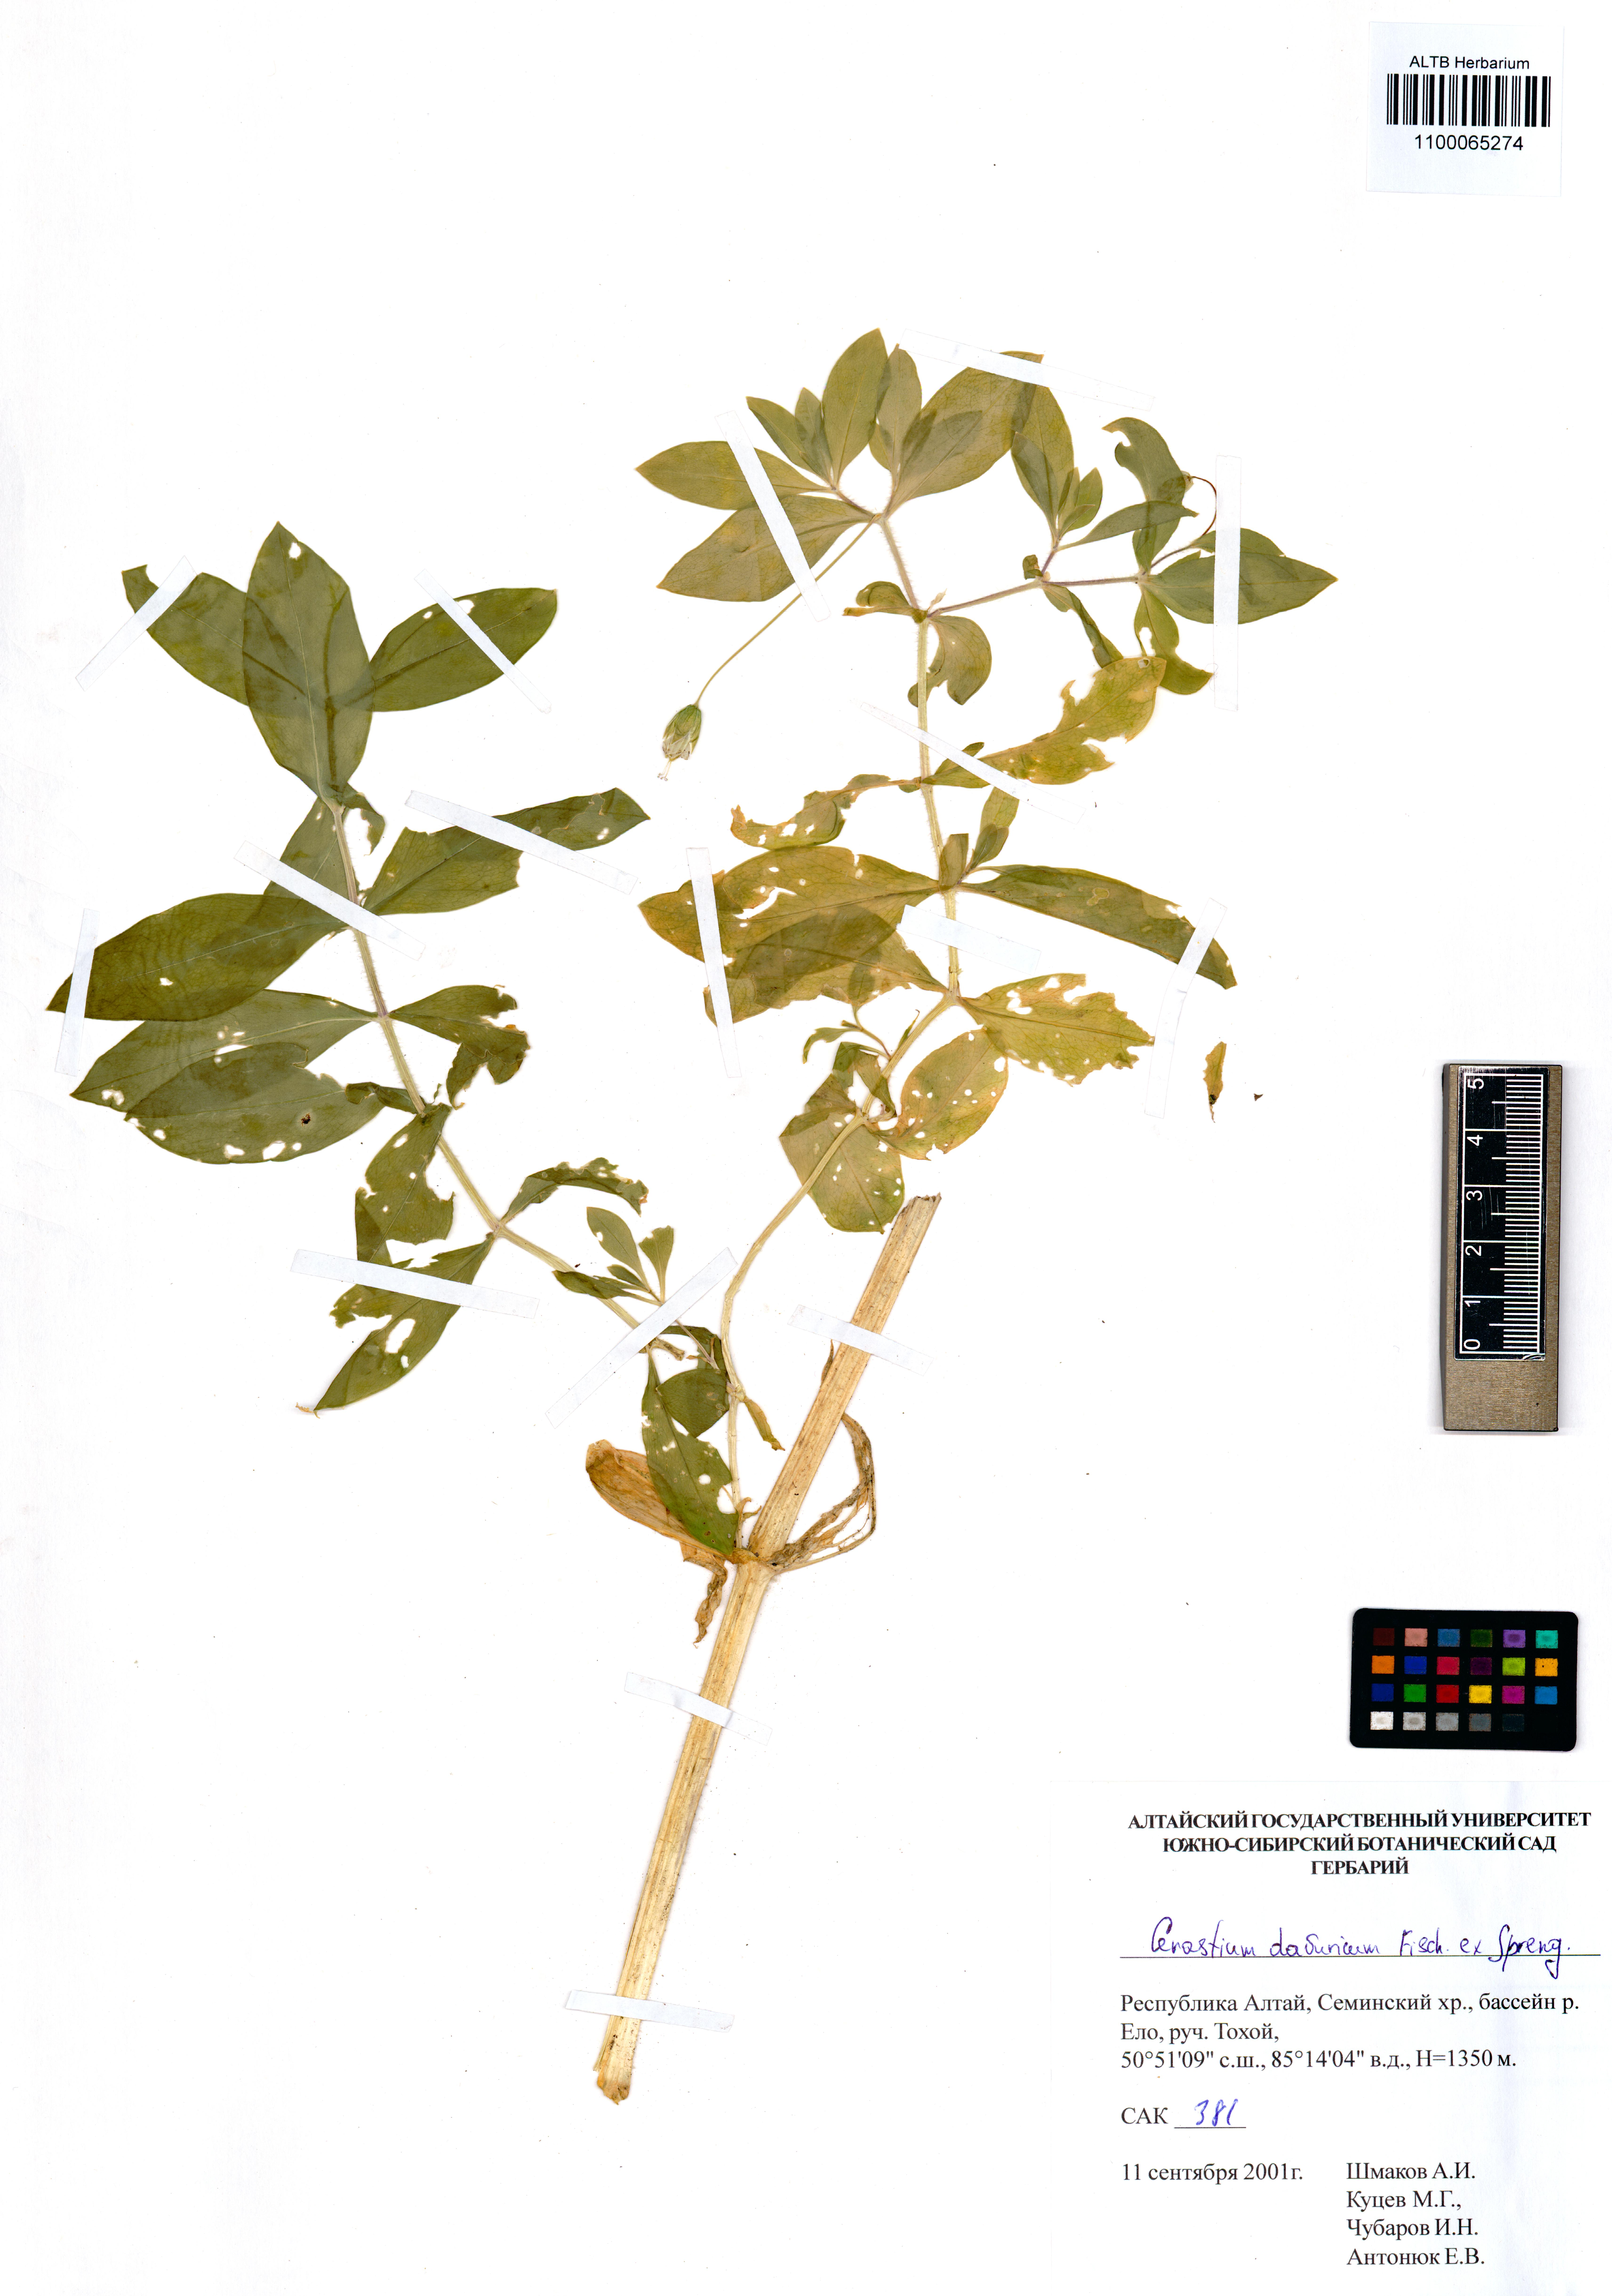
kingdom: Plantae
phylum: Tracheophyta
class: Magnoliopsida
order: Caryophyllales
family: Caryophyllaceae
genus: Dichodon
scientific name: Dichodon davuricum
